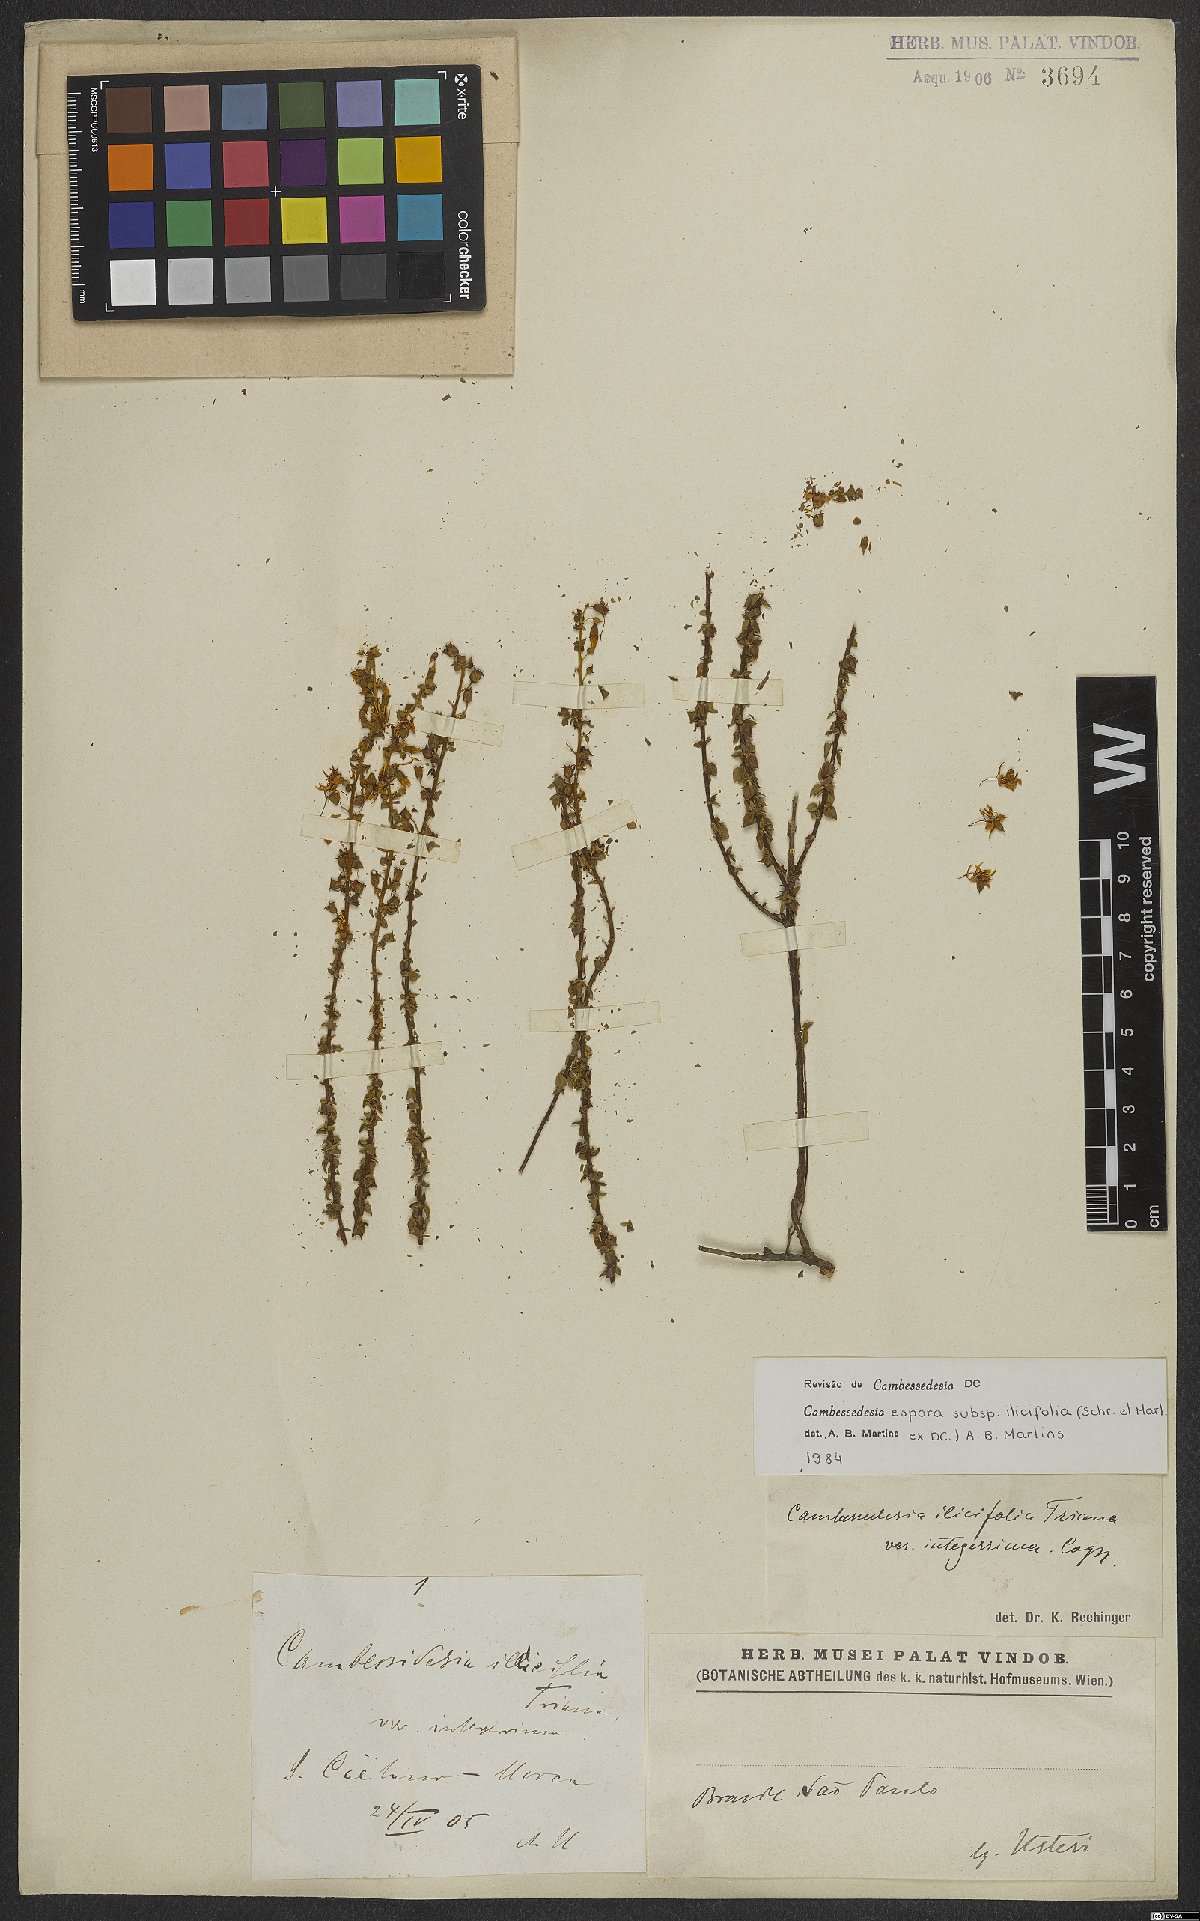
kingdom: Plantae
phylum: Tracheophyta
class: Magnoliopsida
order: Myrtales
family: Melastomataceae
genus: Cambessedesia
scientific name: Cambessedesia espora
